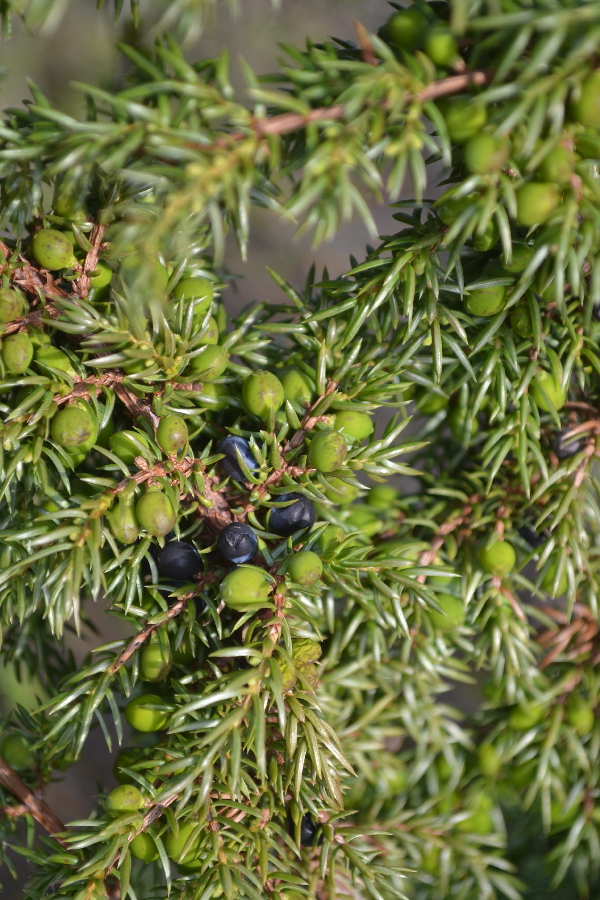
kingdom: Plantae
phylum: Tracheophyta
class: Pinopsida
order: Pinales
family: Cupressaceae
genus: Juniperus
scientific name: Juniperus communis
